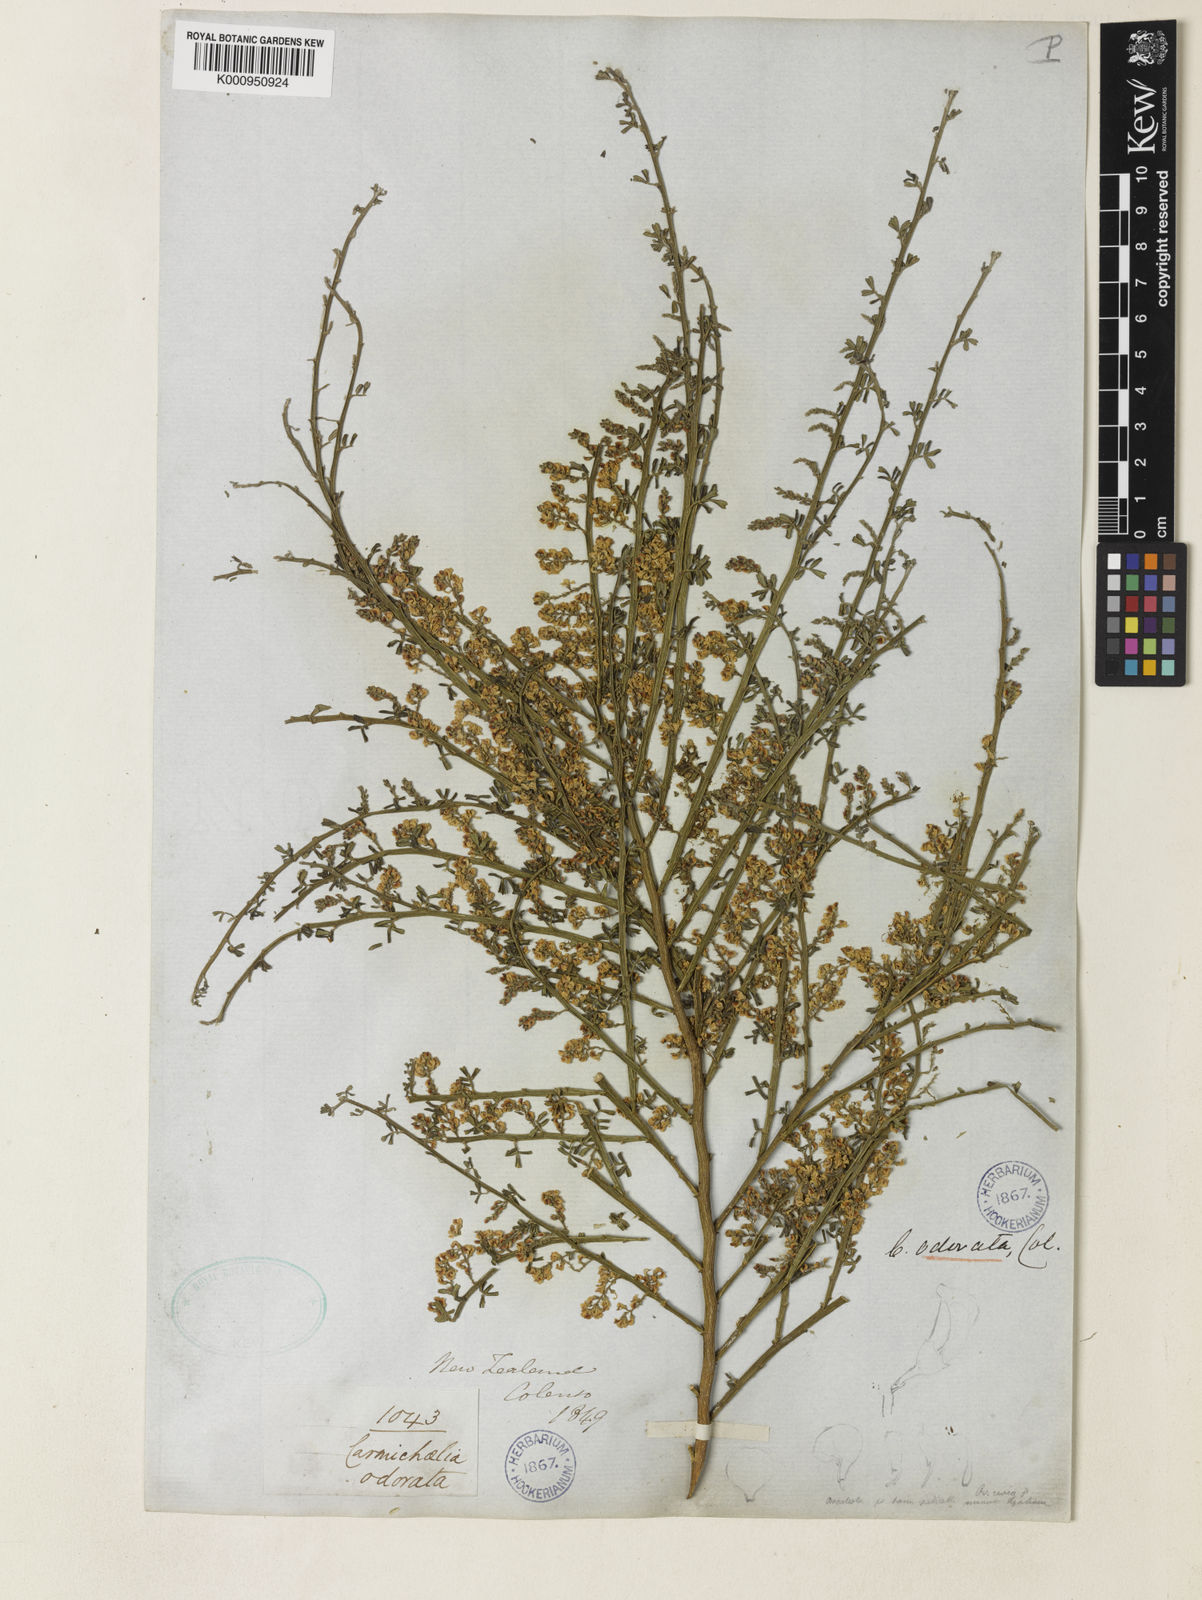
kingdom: Plantae
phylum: Tracheophyta
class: Magnoliopsida
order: Fabales
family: Fabaceae
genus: Carmichaelia
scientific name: Carmichaelia odorata
